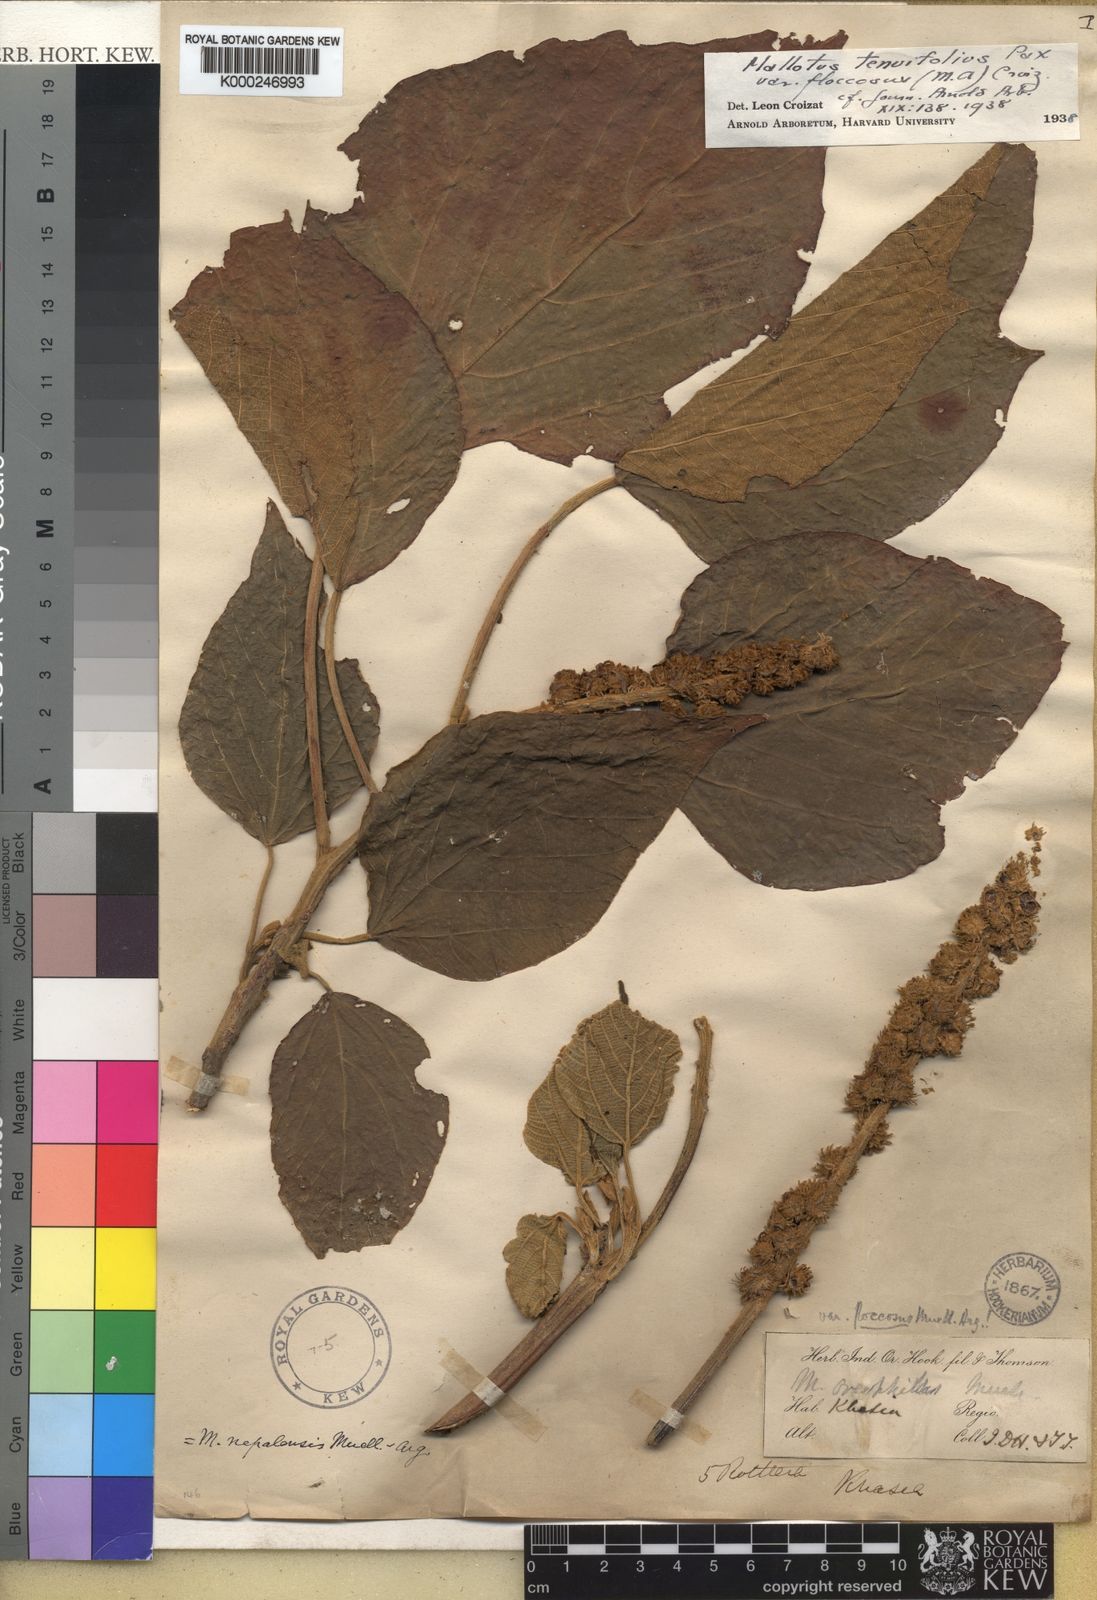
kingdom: Plantae
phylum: Tracheophyta
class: Magnoliopsida
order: Malpighiales
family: Euphorbiaceae
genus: Mallotus
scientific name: Mallotus
